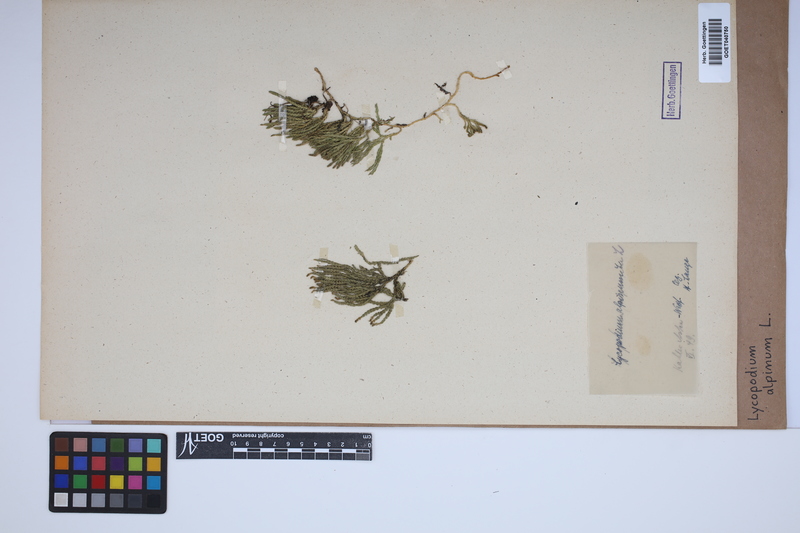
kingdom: Plantae
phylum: Tracheophyta
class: Lycopodiopsida
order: Lycopodiales
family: Lycopodiaceae
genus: Diphasiastrum
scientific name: Diphasiastrum alpinum
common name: Alpine clubmoss
